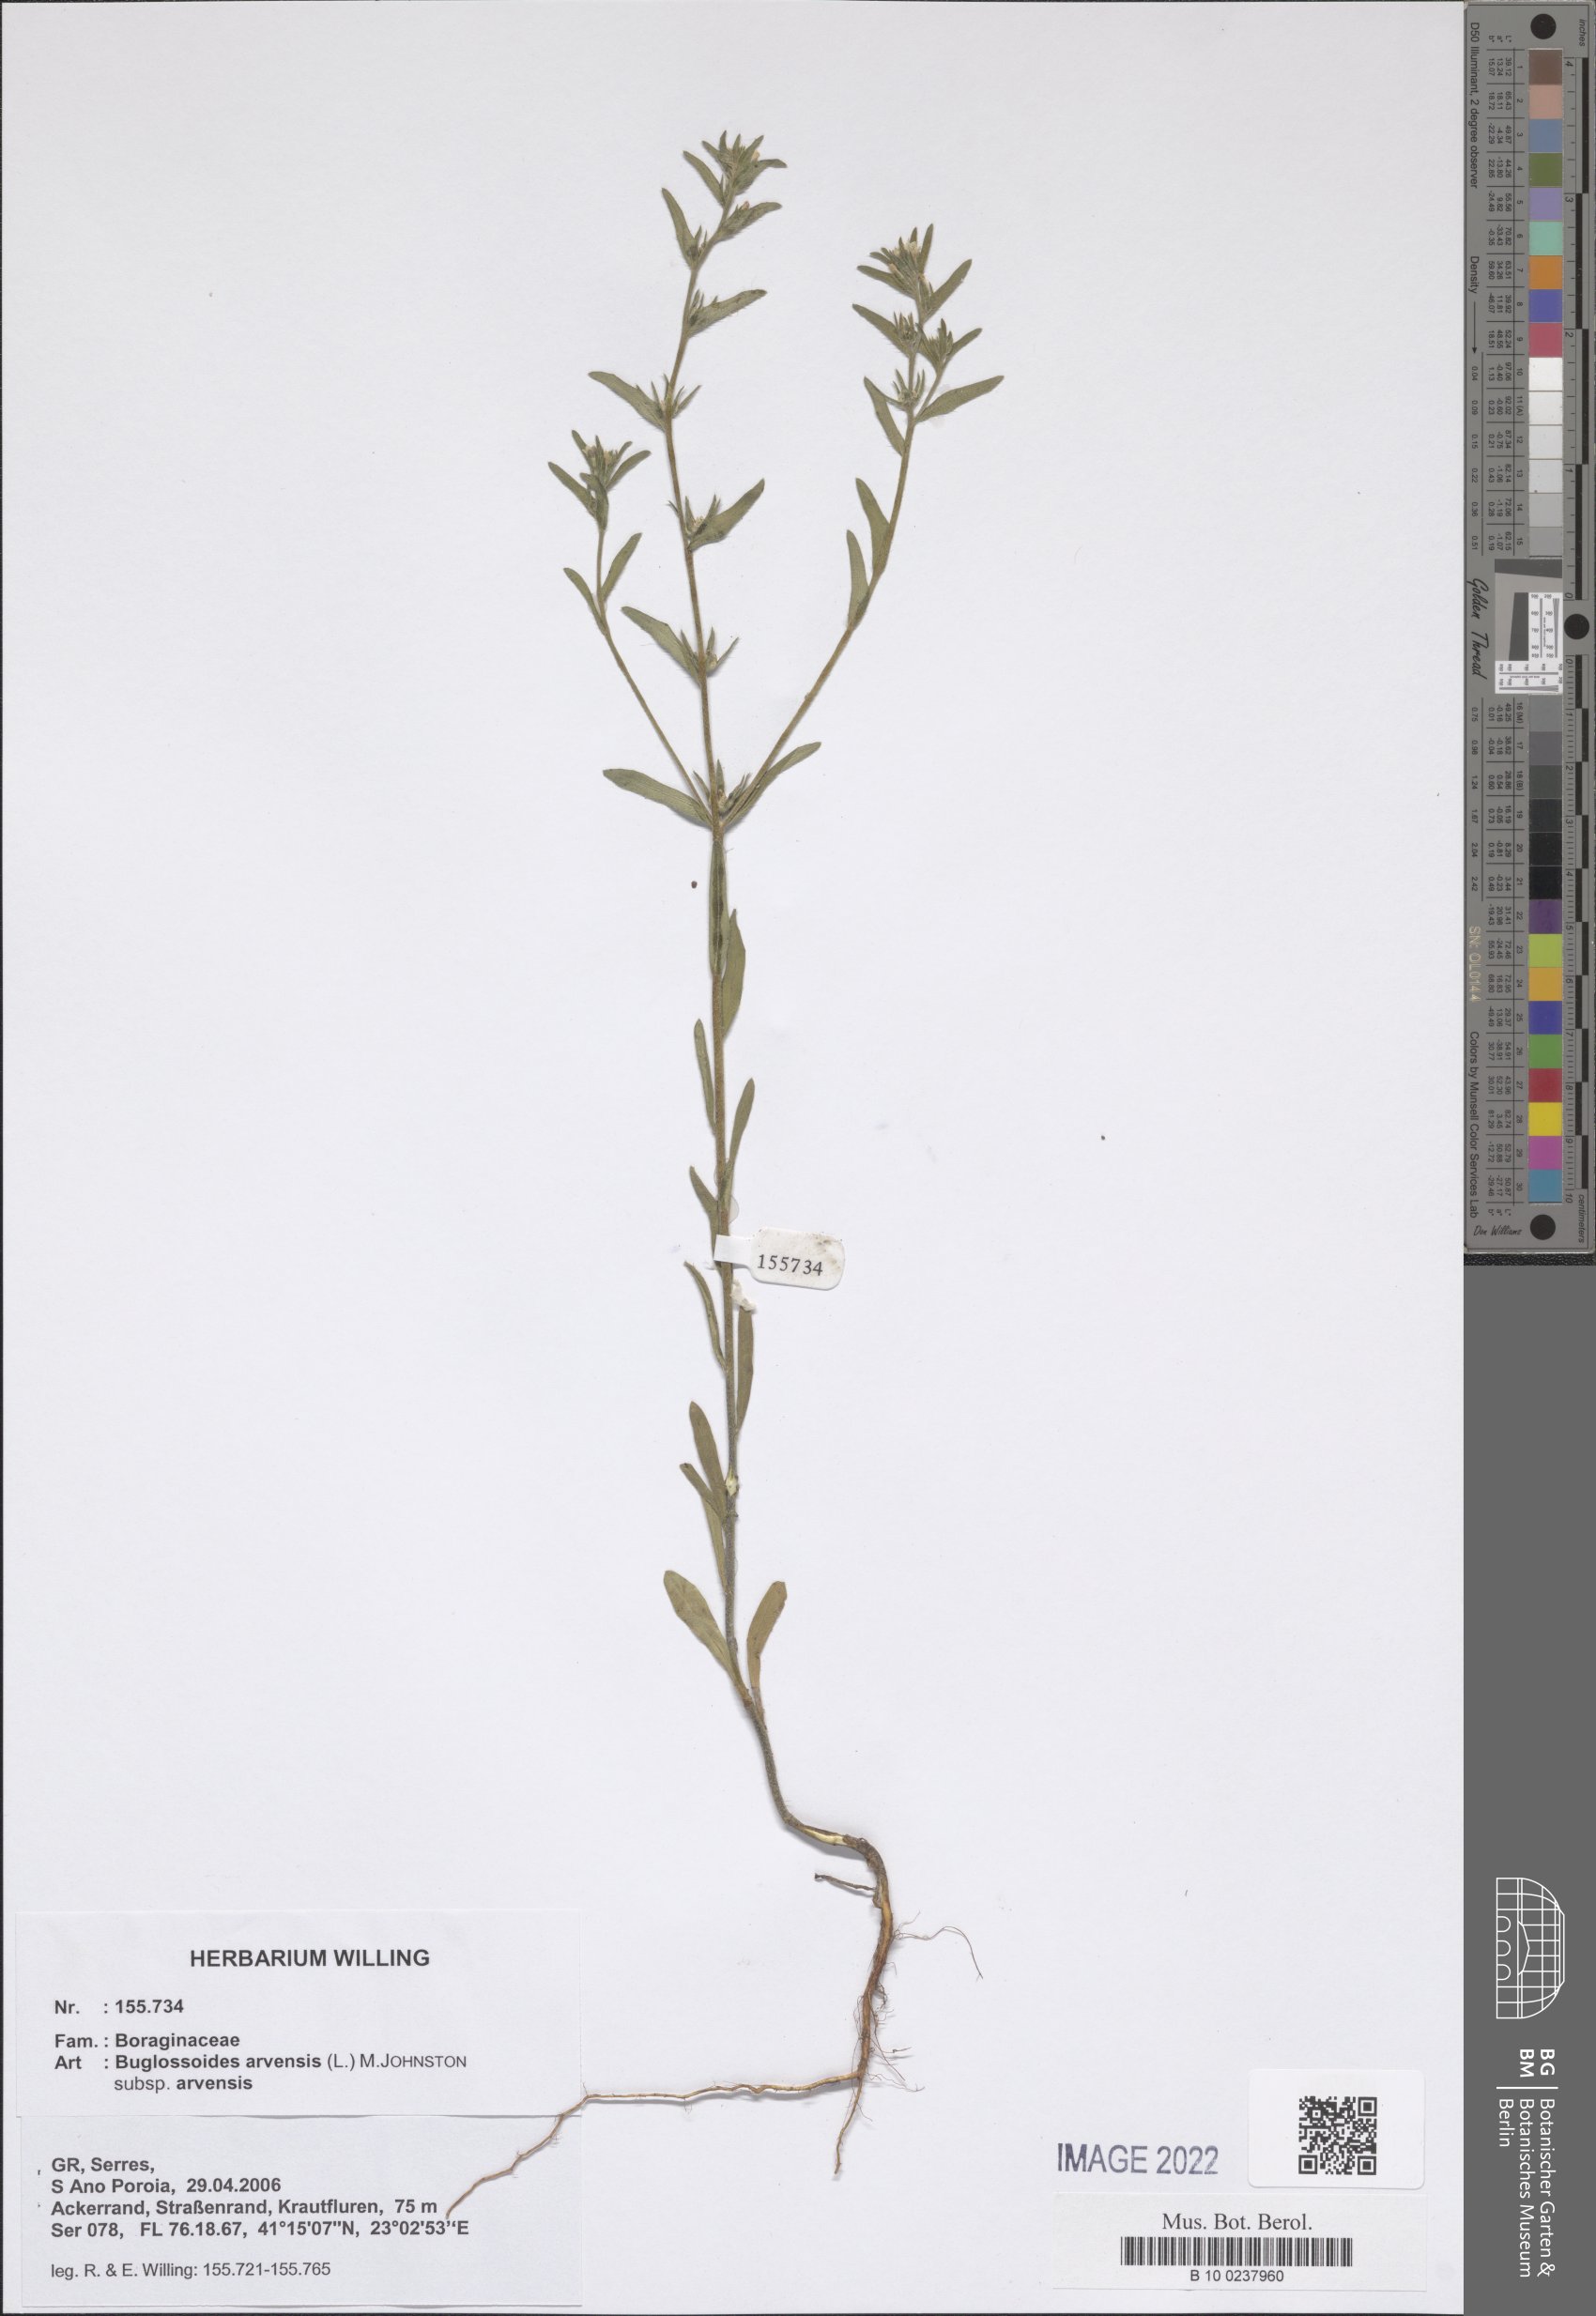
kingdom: Plantae
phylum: Tracheophyta
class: Magnoliopsida
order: Boraginales
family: Boraginaceae
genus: Buglossoides
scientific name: Buglossoides arvensis
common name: Corn gromwell
